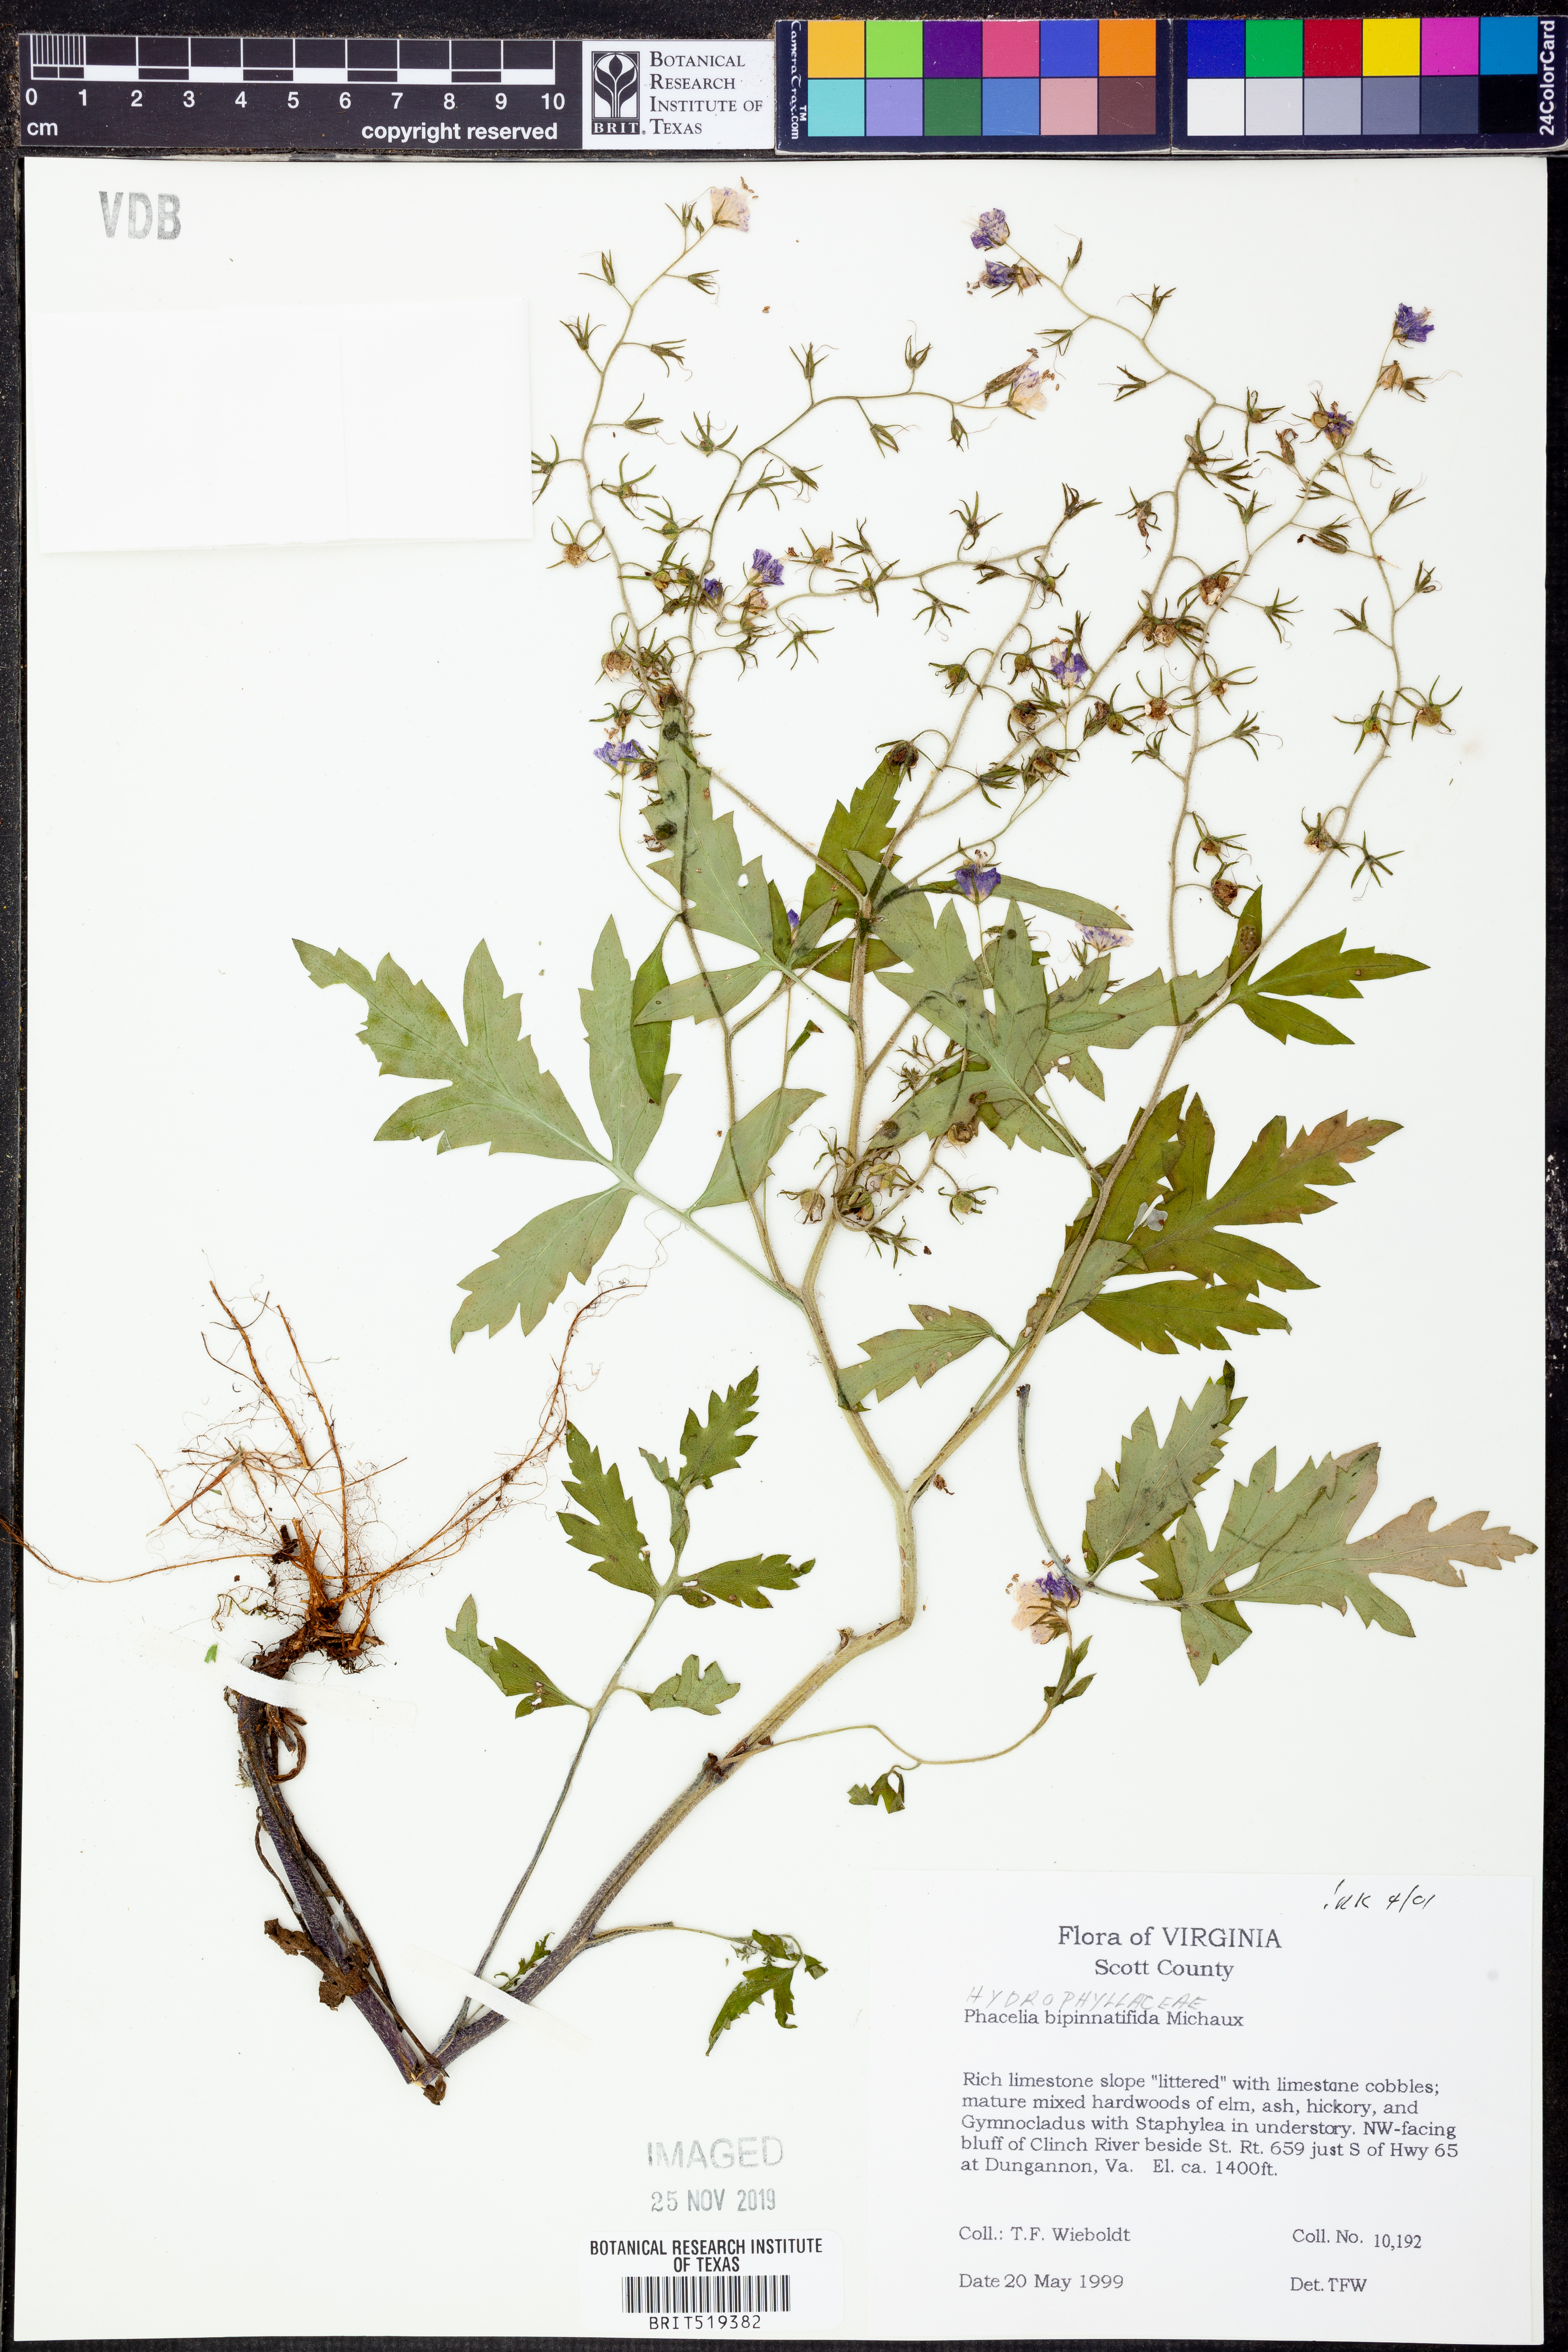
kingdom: Plantae
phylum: Tracheophyta
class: Magnoliopsida
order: Boraginales
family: Hydrophyllaceae
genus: Phacelia
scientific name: Phacelia bipinnatifida
